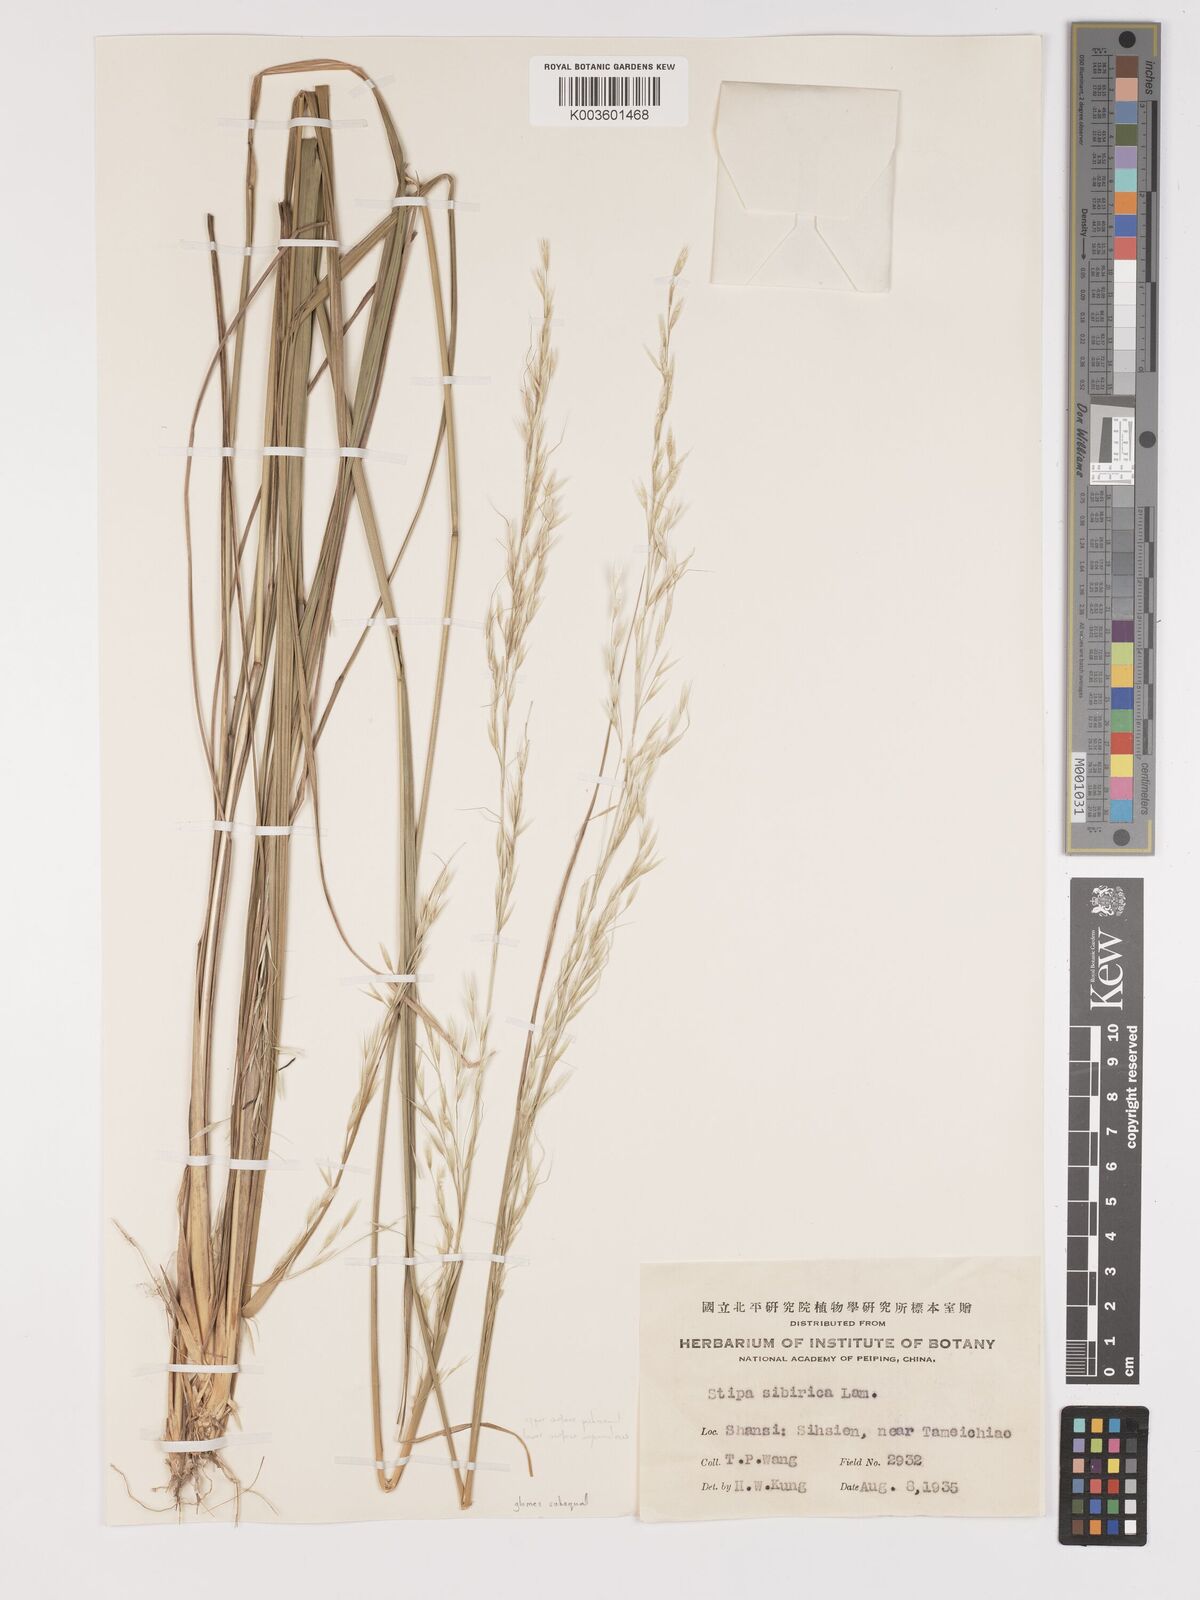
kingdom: Plantae
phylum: Tracheophyta
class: Liliopsida
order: Poales
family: Poaceae
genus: Achnatherum
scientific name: Achnatherum pekinense
